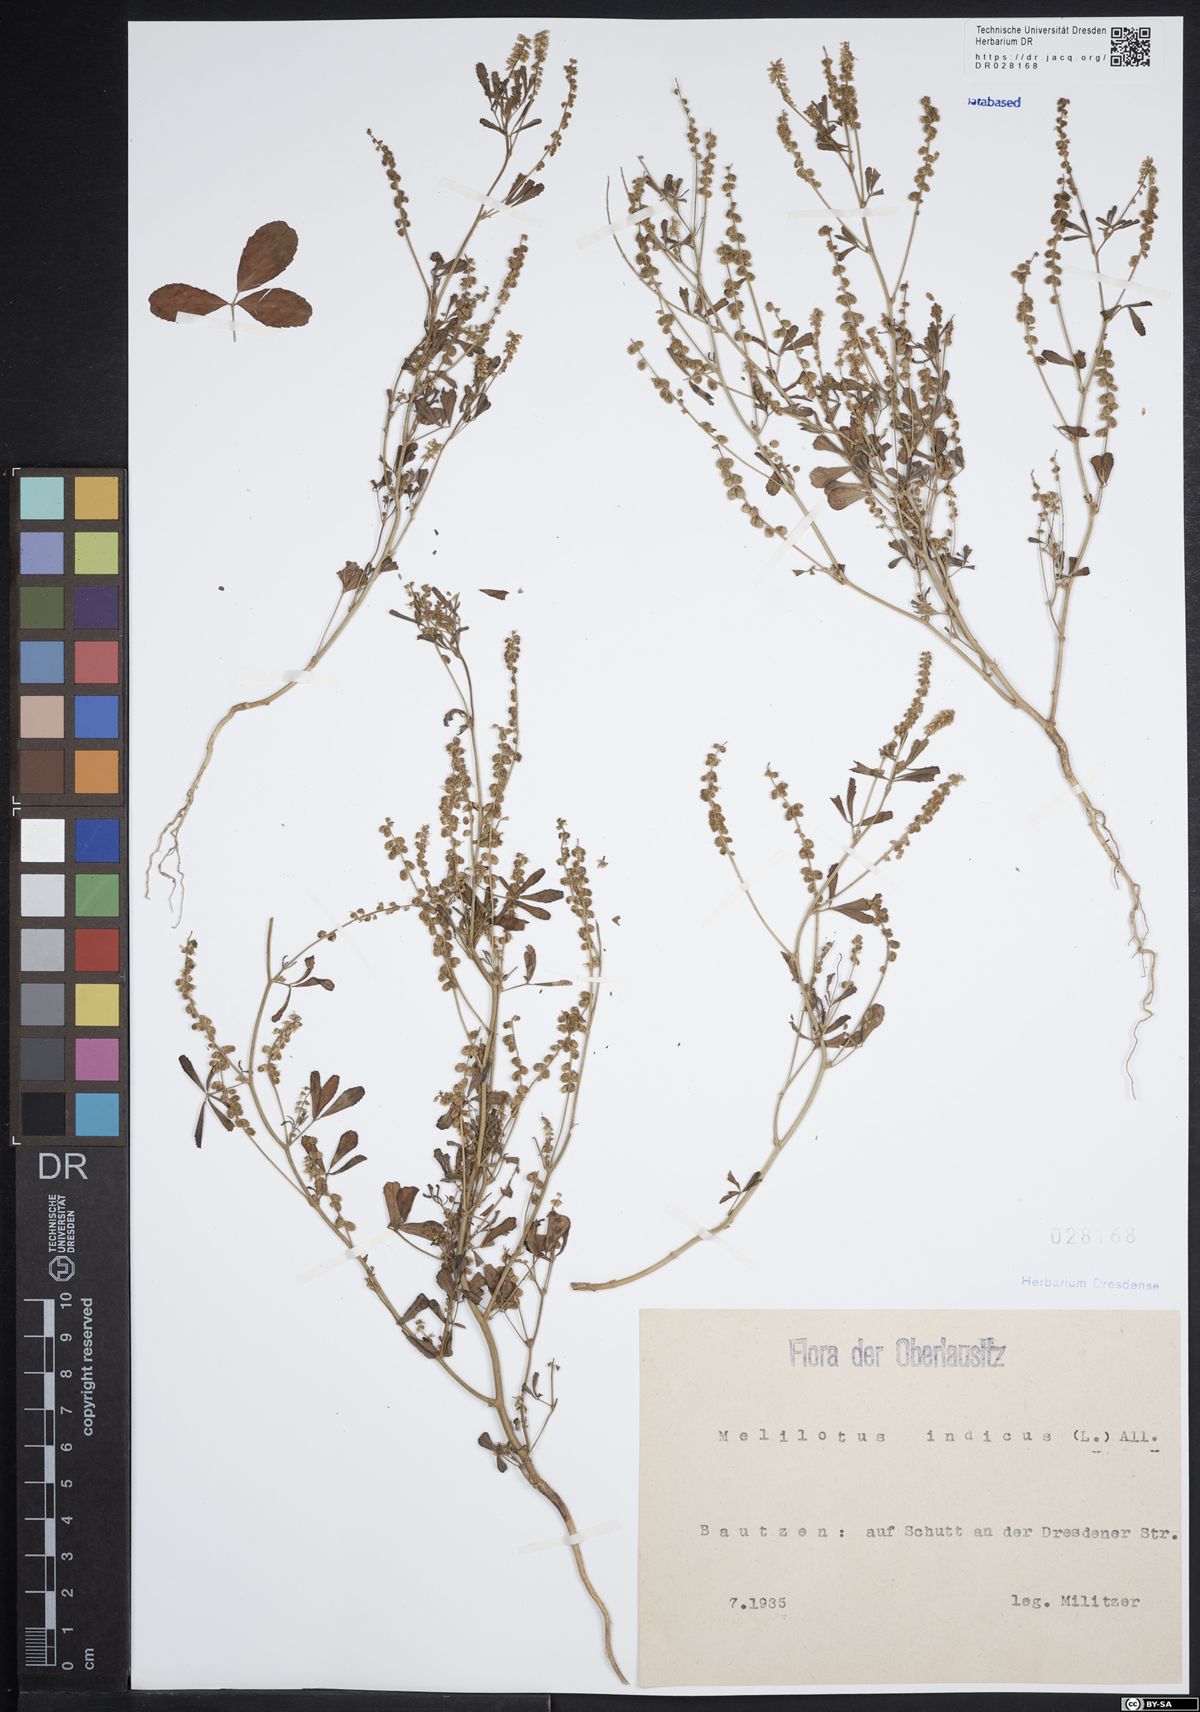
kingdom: Plantae
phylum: Tracheophyta
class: Magnoliopsida
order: Fabales
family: Fabaceae
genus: Melilotus
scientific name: Melilotus indicus
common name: Small melilot
